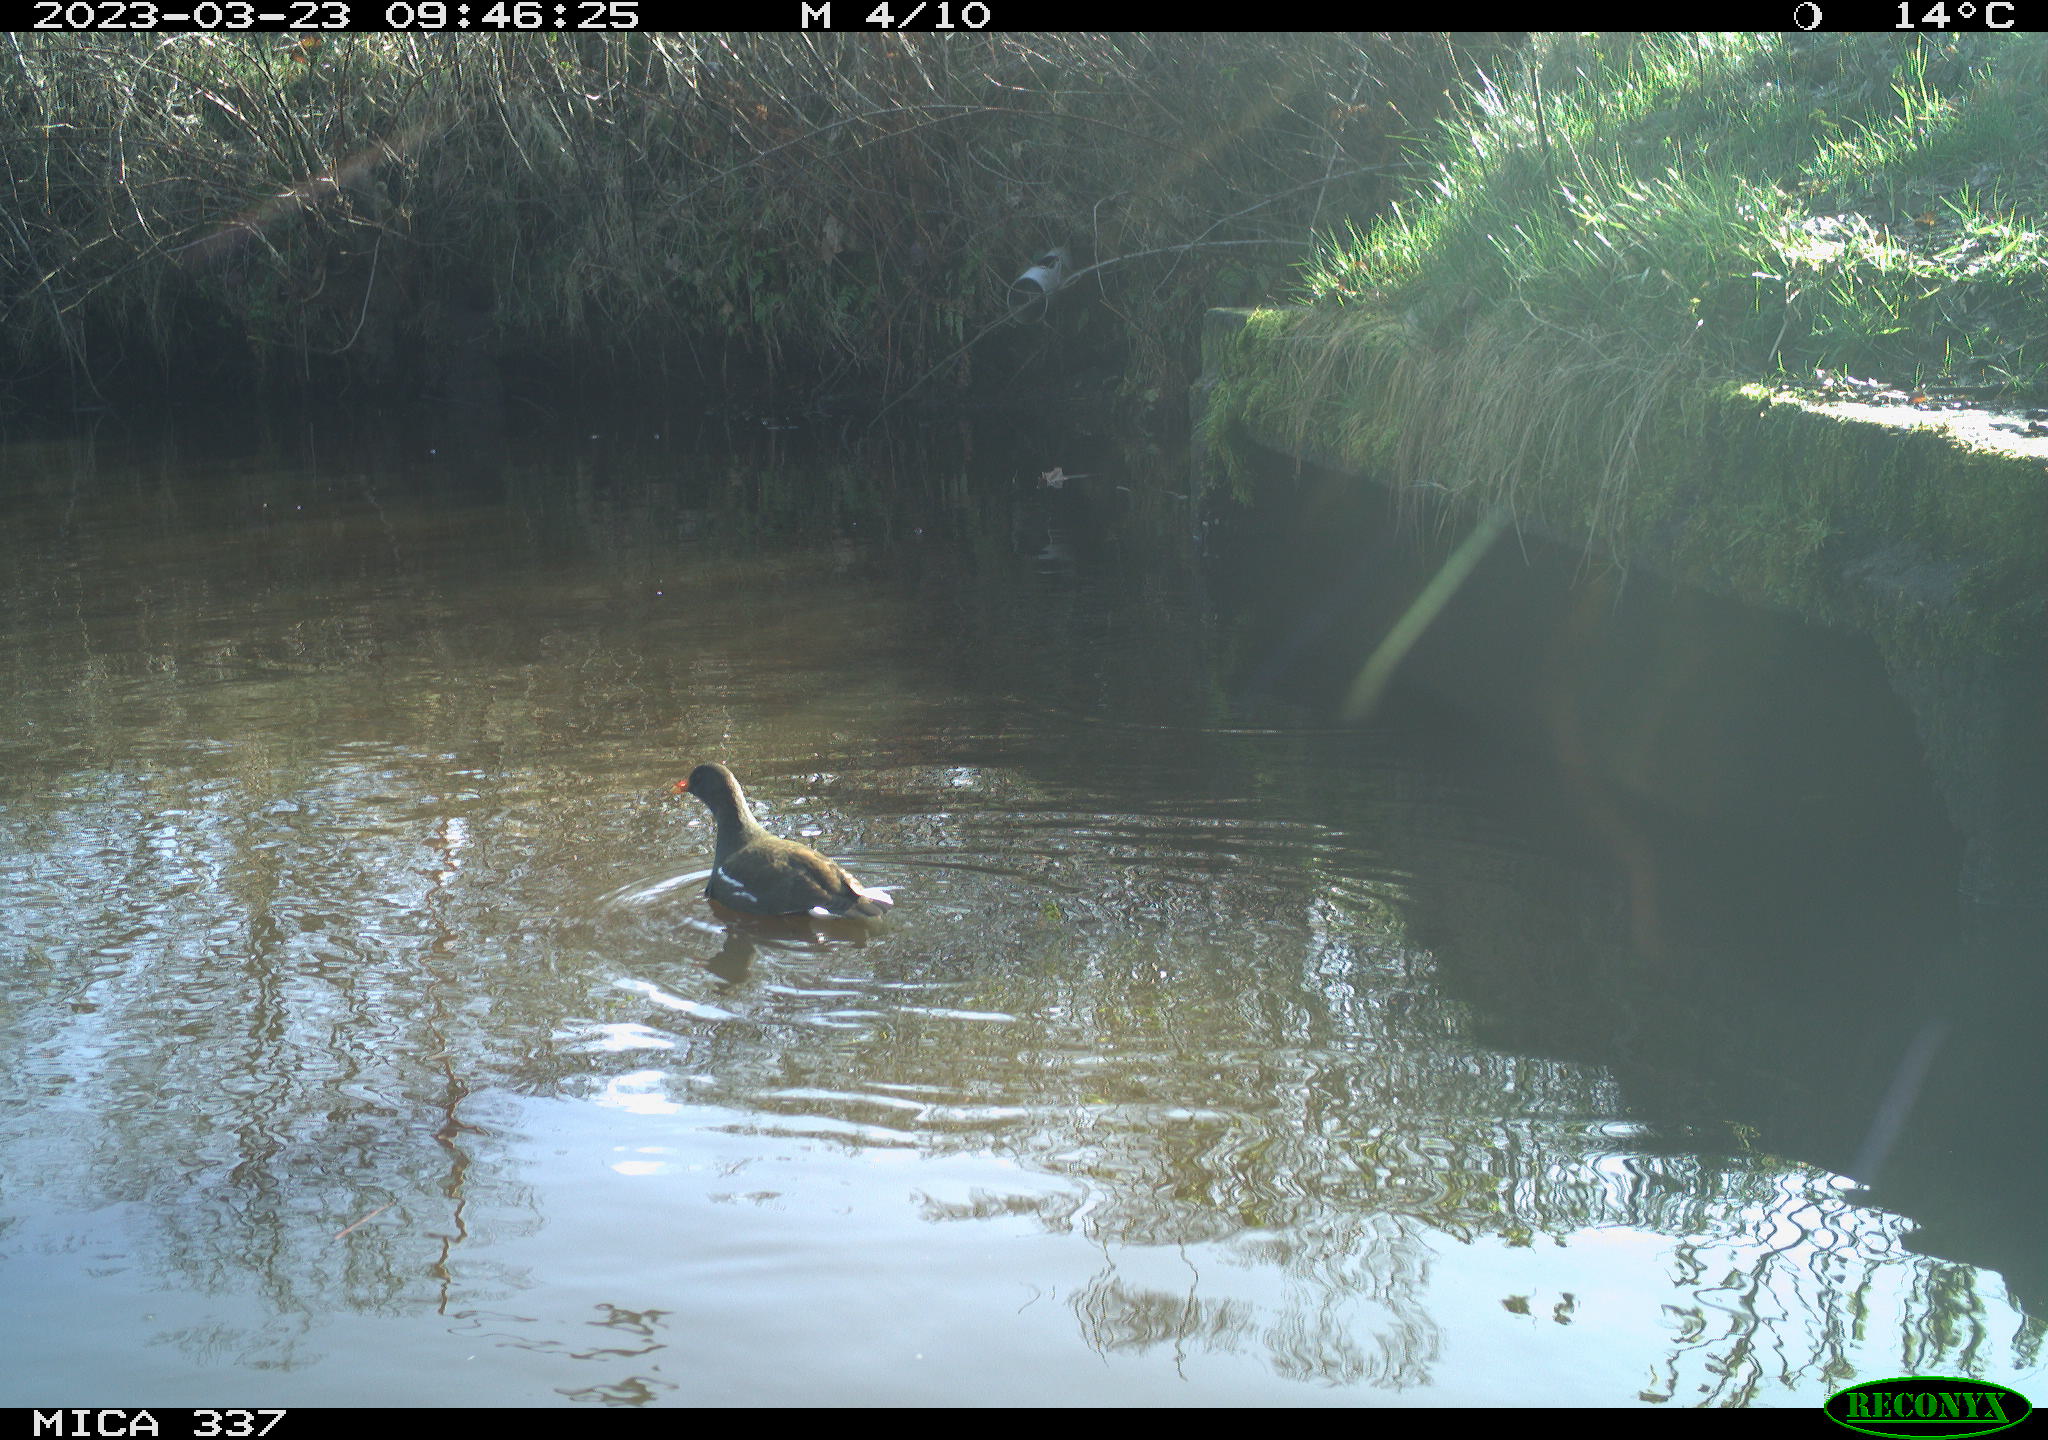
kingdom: Animalia
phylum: Chordata
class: Aves
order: Gruiformes
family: Rallidae
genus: Gallinula
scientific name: Gallinula chloropus
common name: Common moorhen
